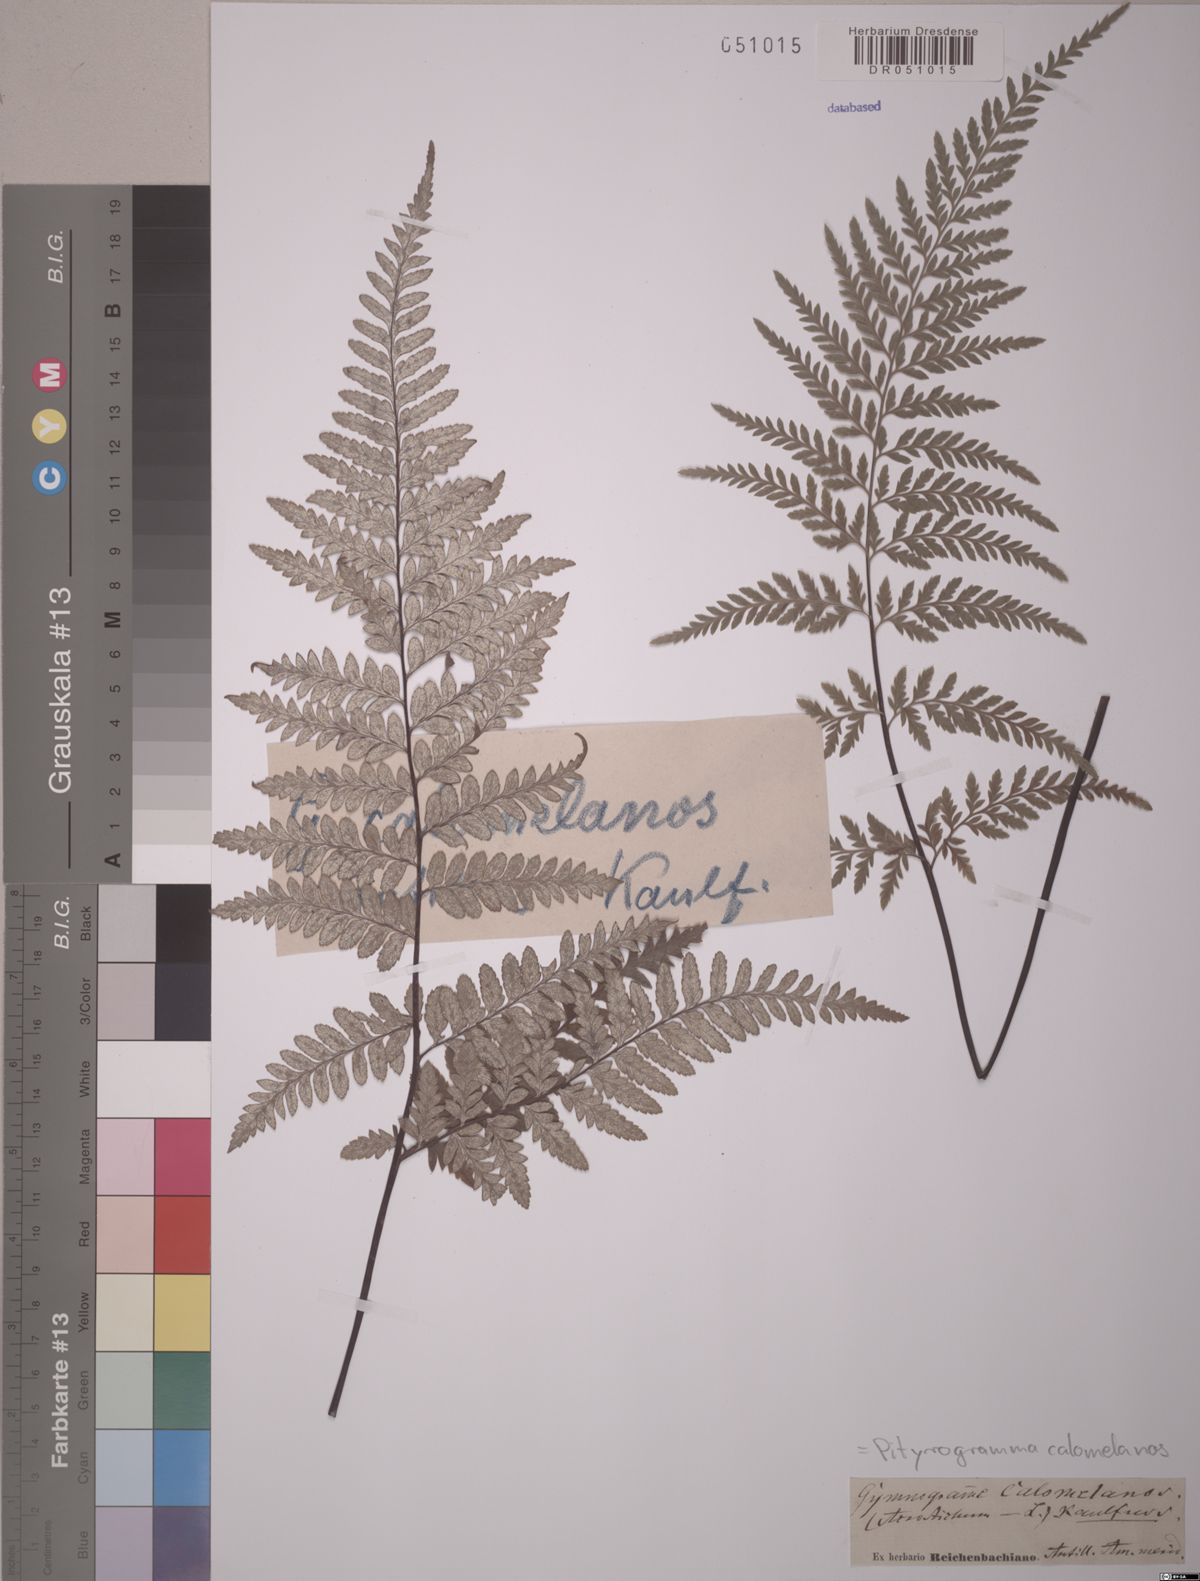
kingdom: Plantae
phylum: Tracheophyta
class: Polypodiopsida
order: Polypodiales
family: Pteridaceae
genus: Pityrogramma
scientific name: Pityrogramma calomelanos
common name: Dixie silverback fern
